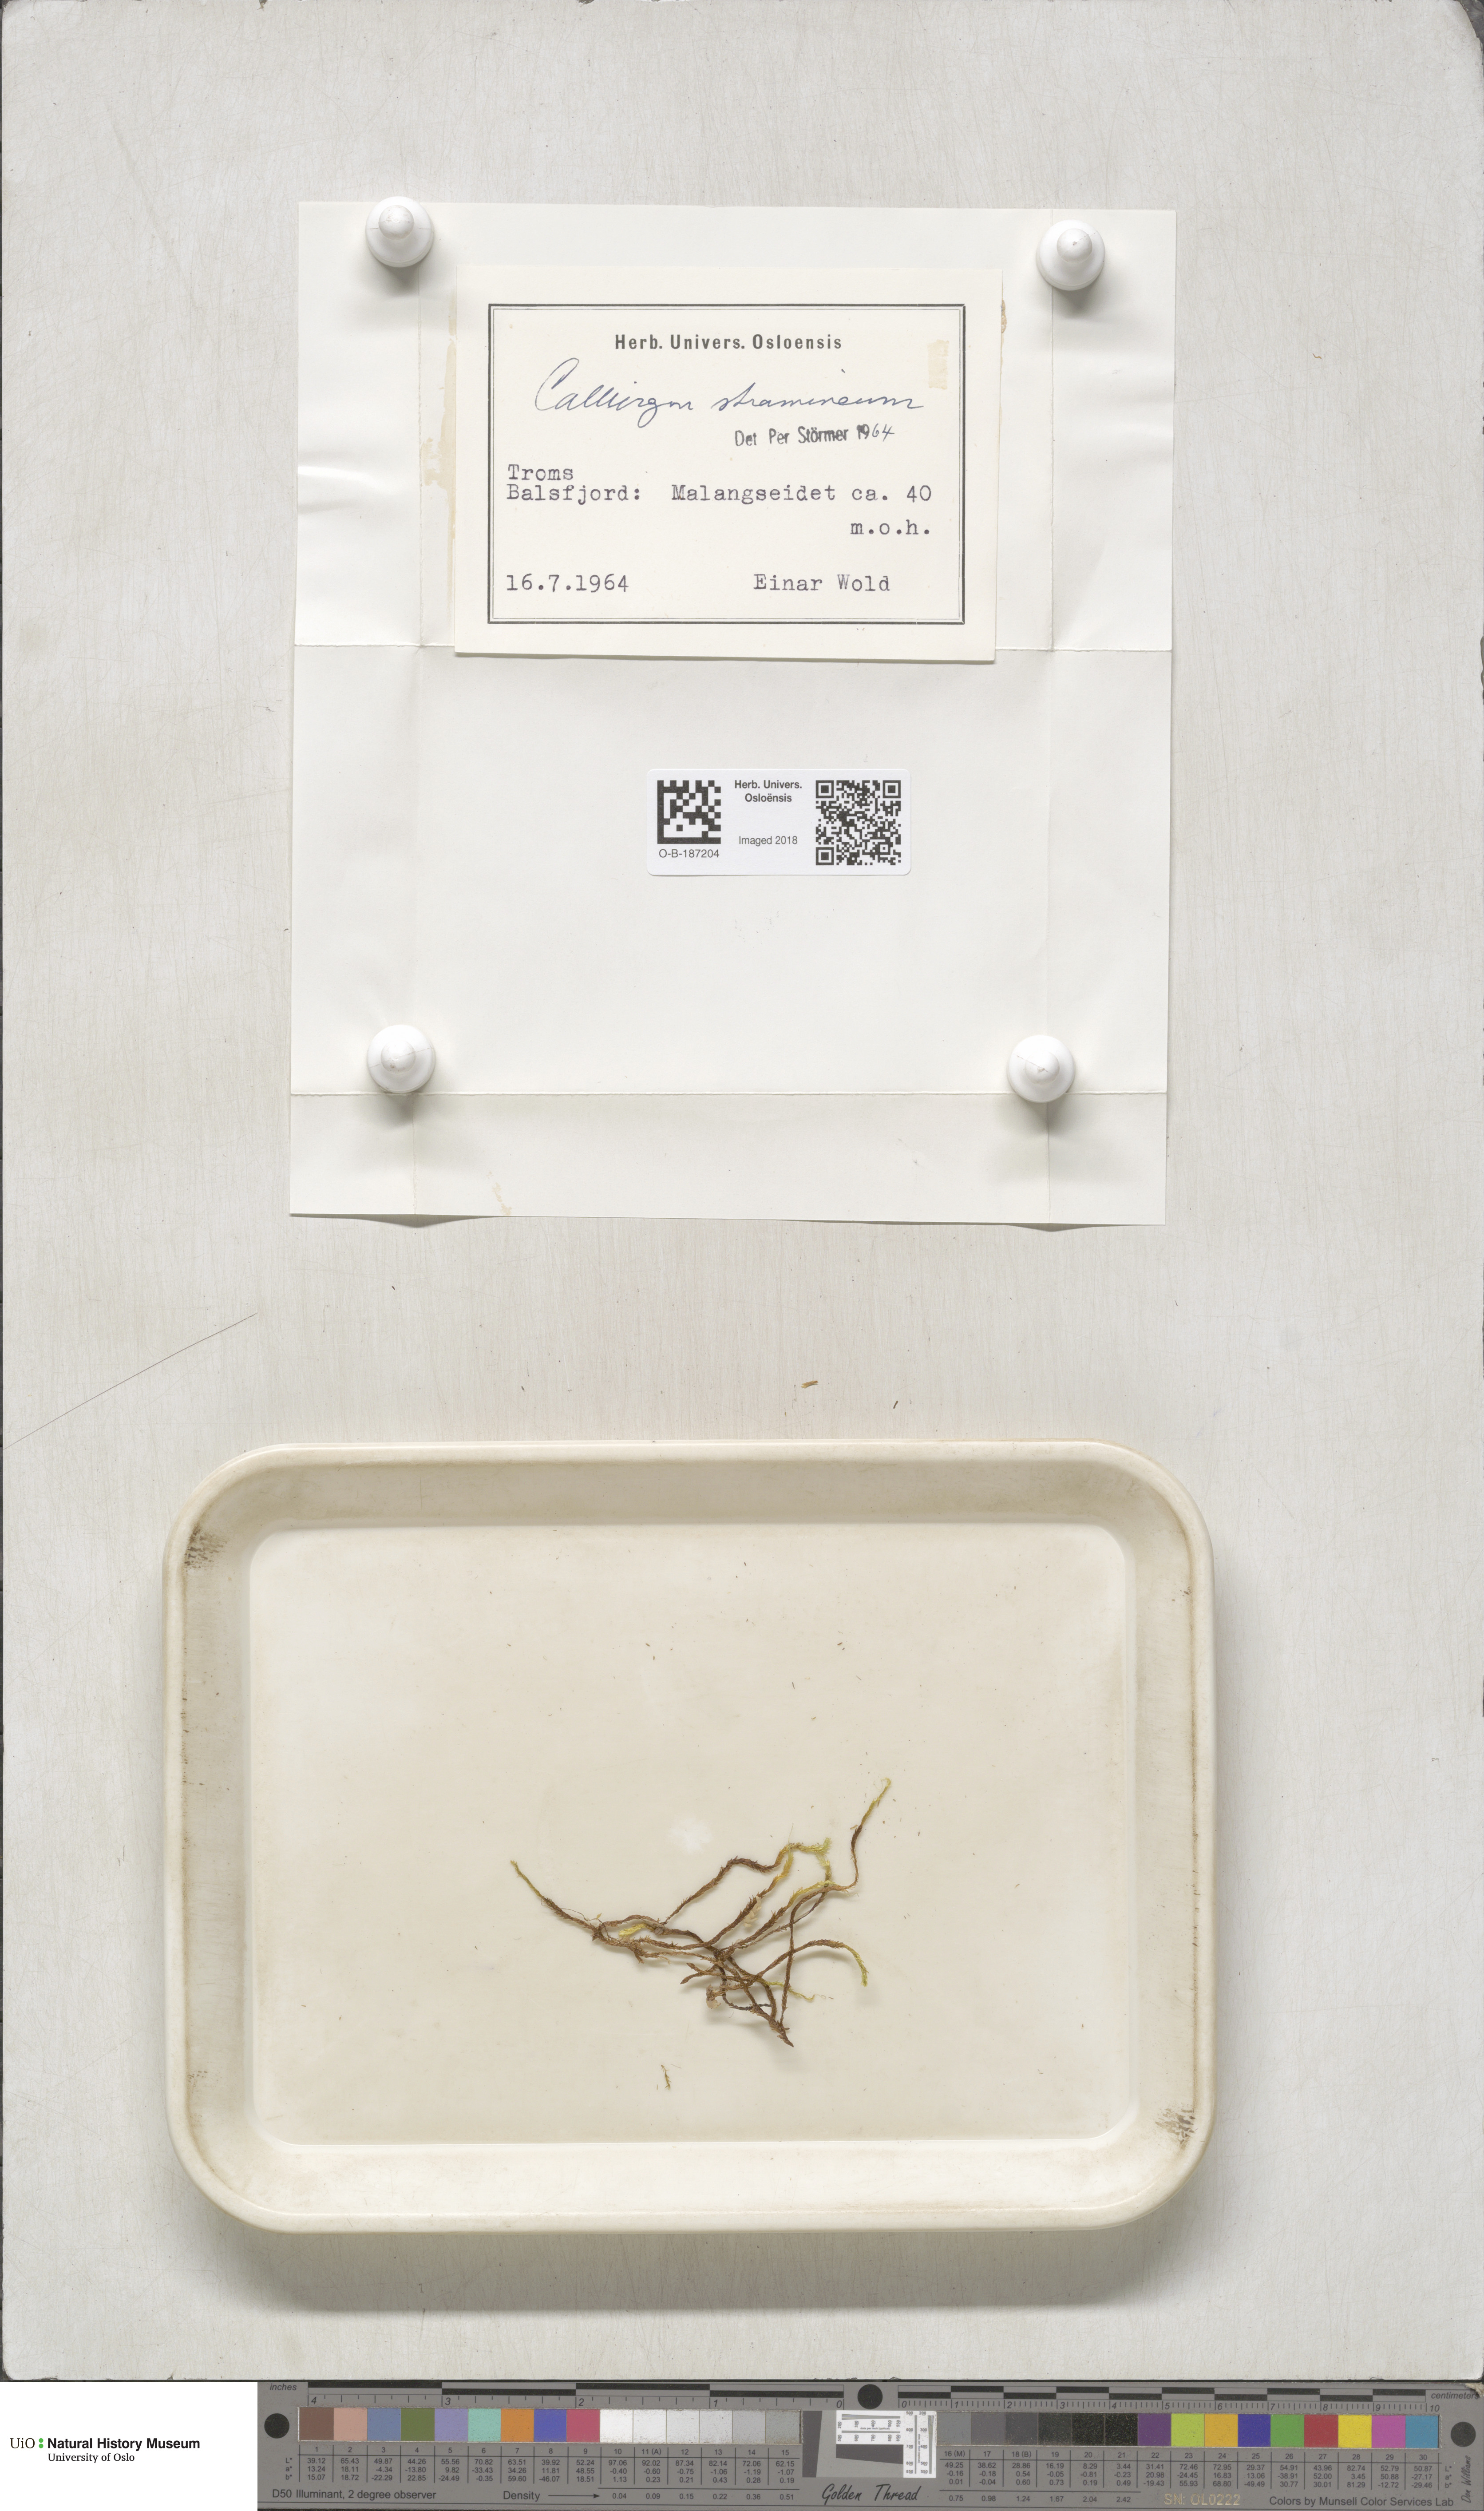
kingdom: Plantae
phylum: Bryophyta
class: Bryopsida
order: Hypnales
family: Calliergonaceae
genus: Straminergon
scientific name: Straminergon stramineum
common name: Straw moss
